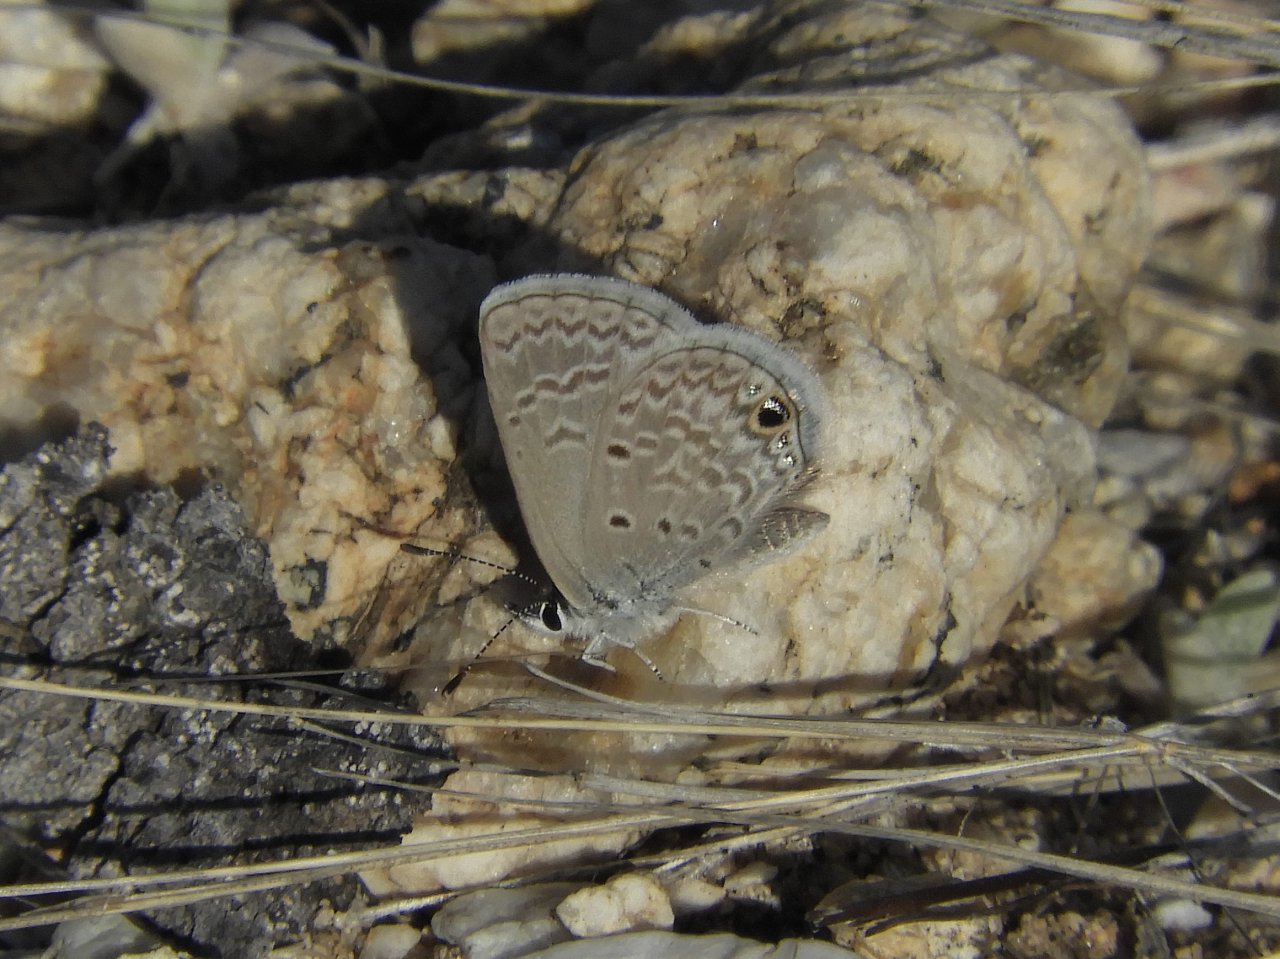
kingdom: Animalia
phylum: Arthropoda
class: Insecta
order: Lepidoptera
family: Lycaenidae
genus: Hemiargus
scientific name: Hemiargus ceraunus
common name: Ceraunus Blue
